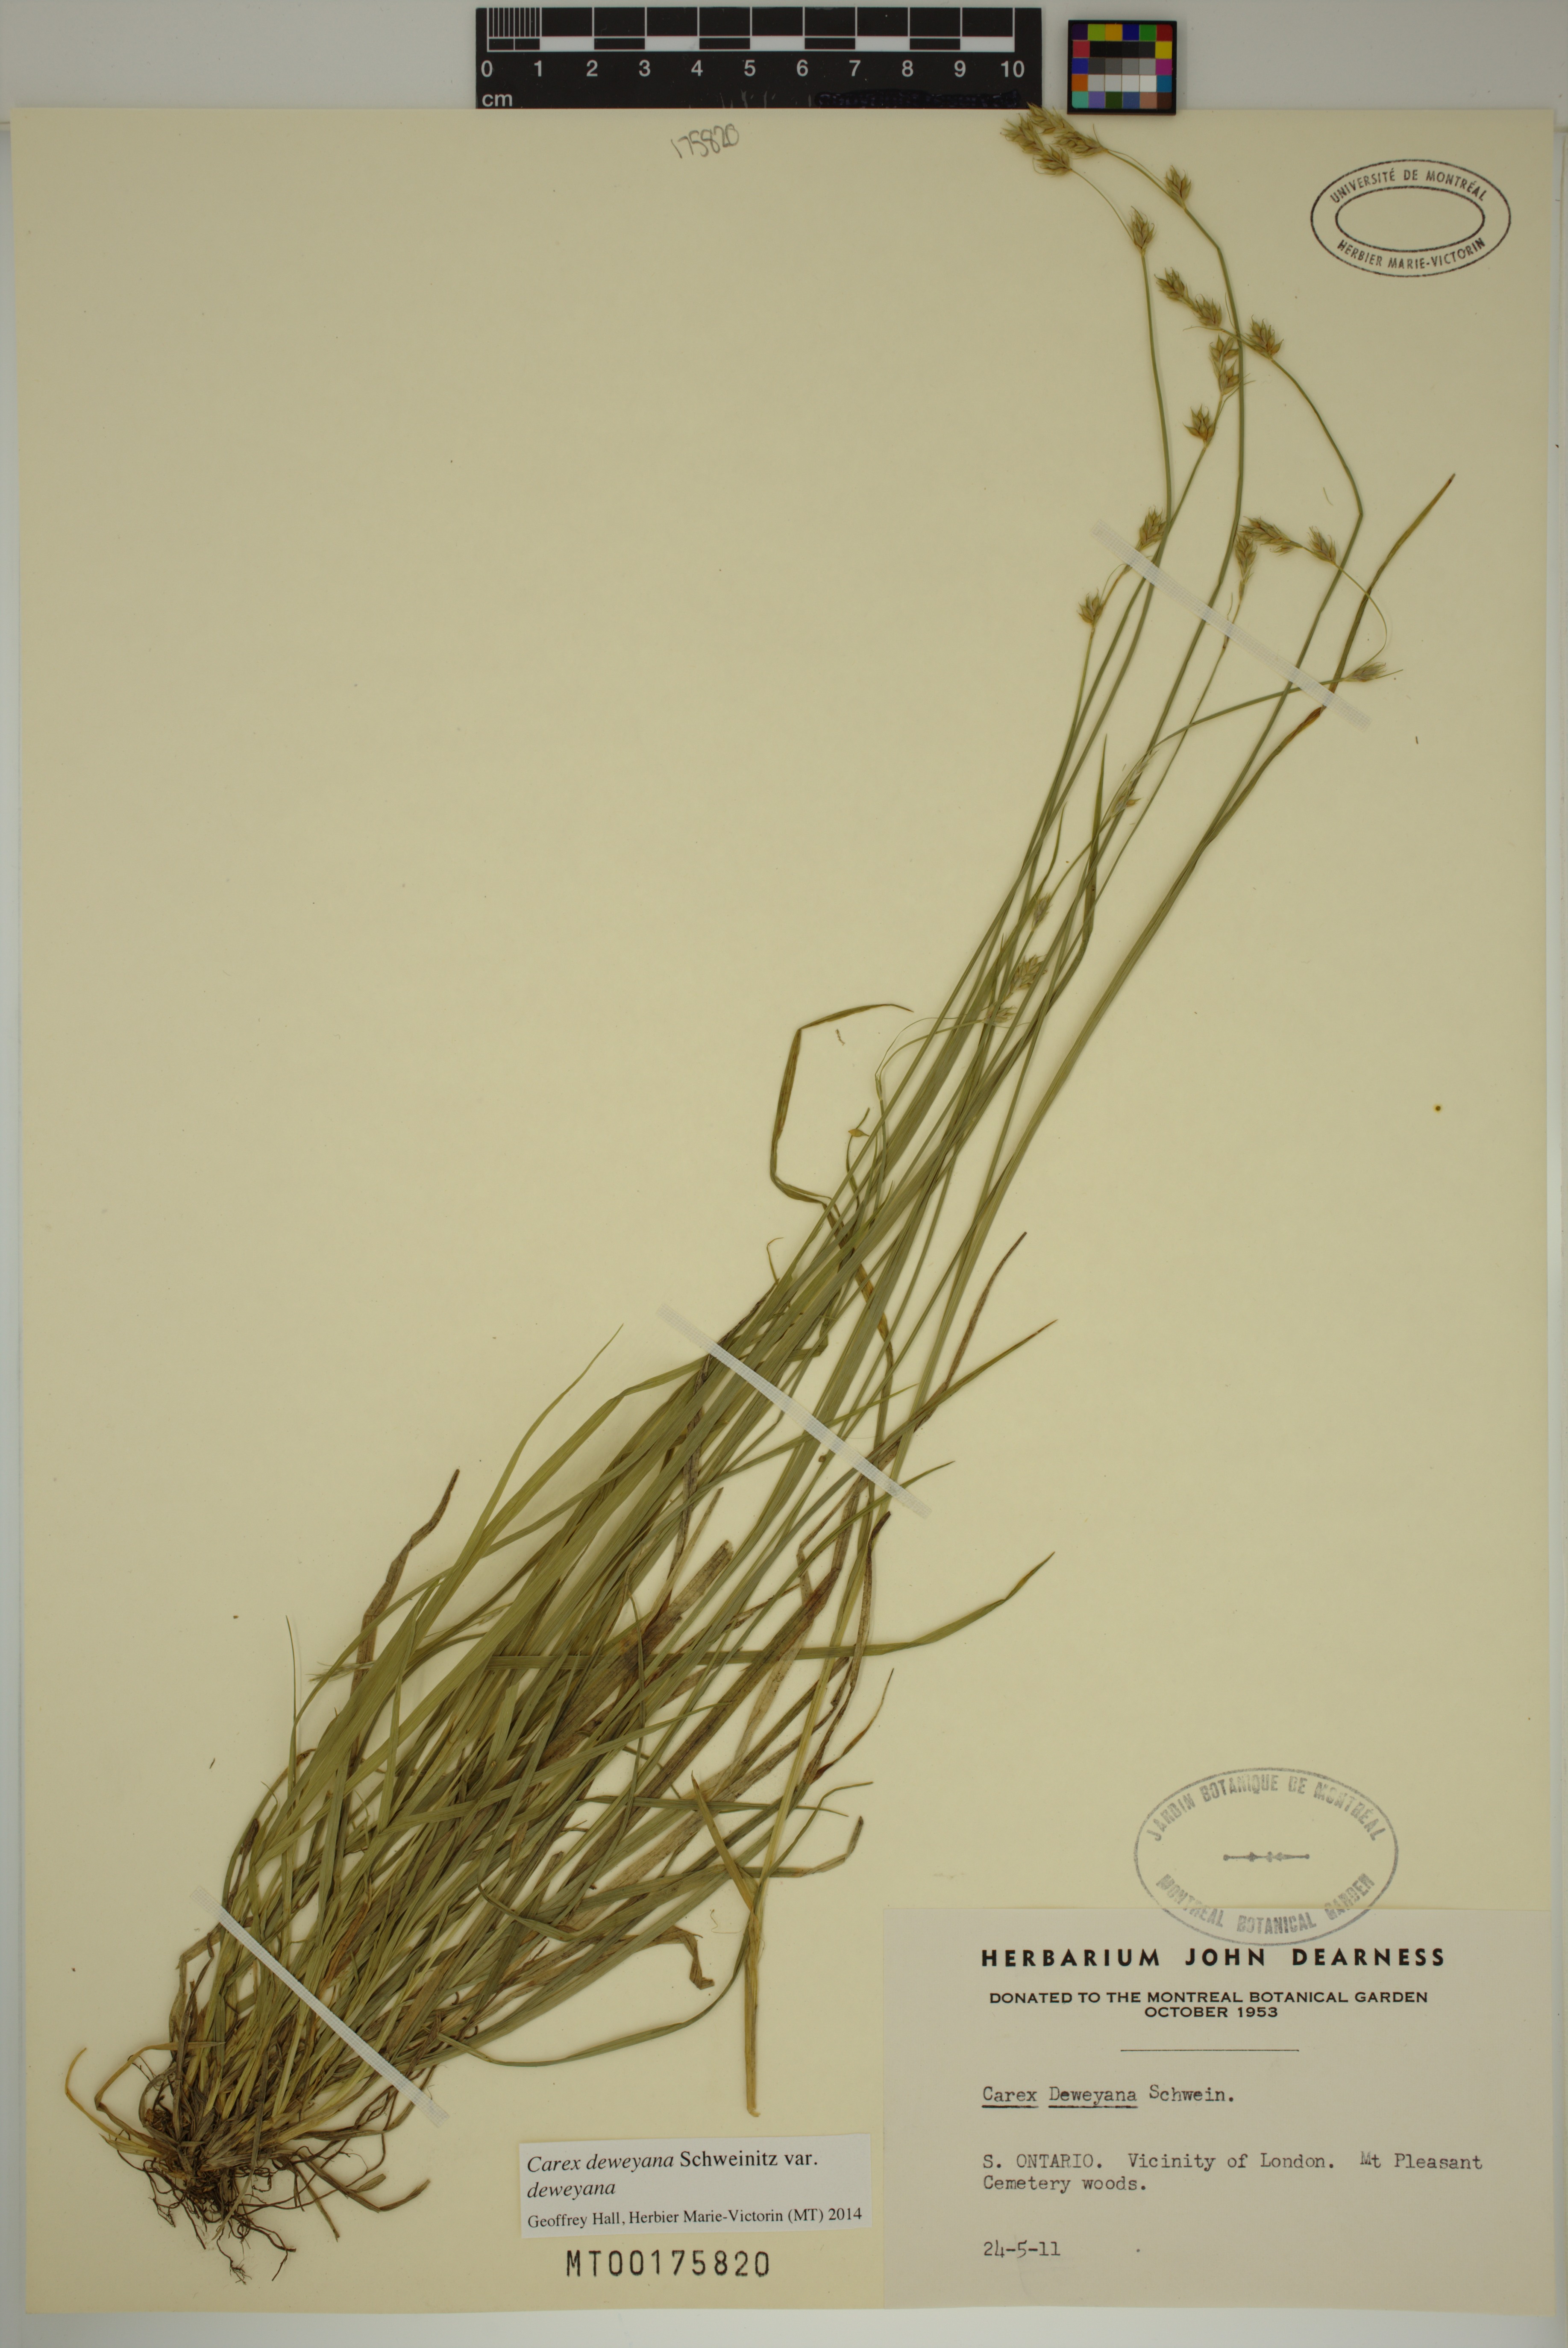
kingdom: Plantae
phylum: Tracheophyta
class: Liliopsida
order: Poales
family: Cyperaceae
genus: Carex
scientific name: Carex deweyana
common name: Dewey's sedge
